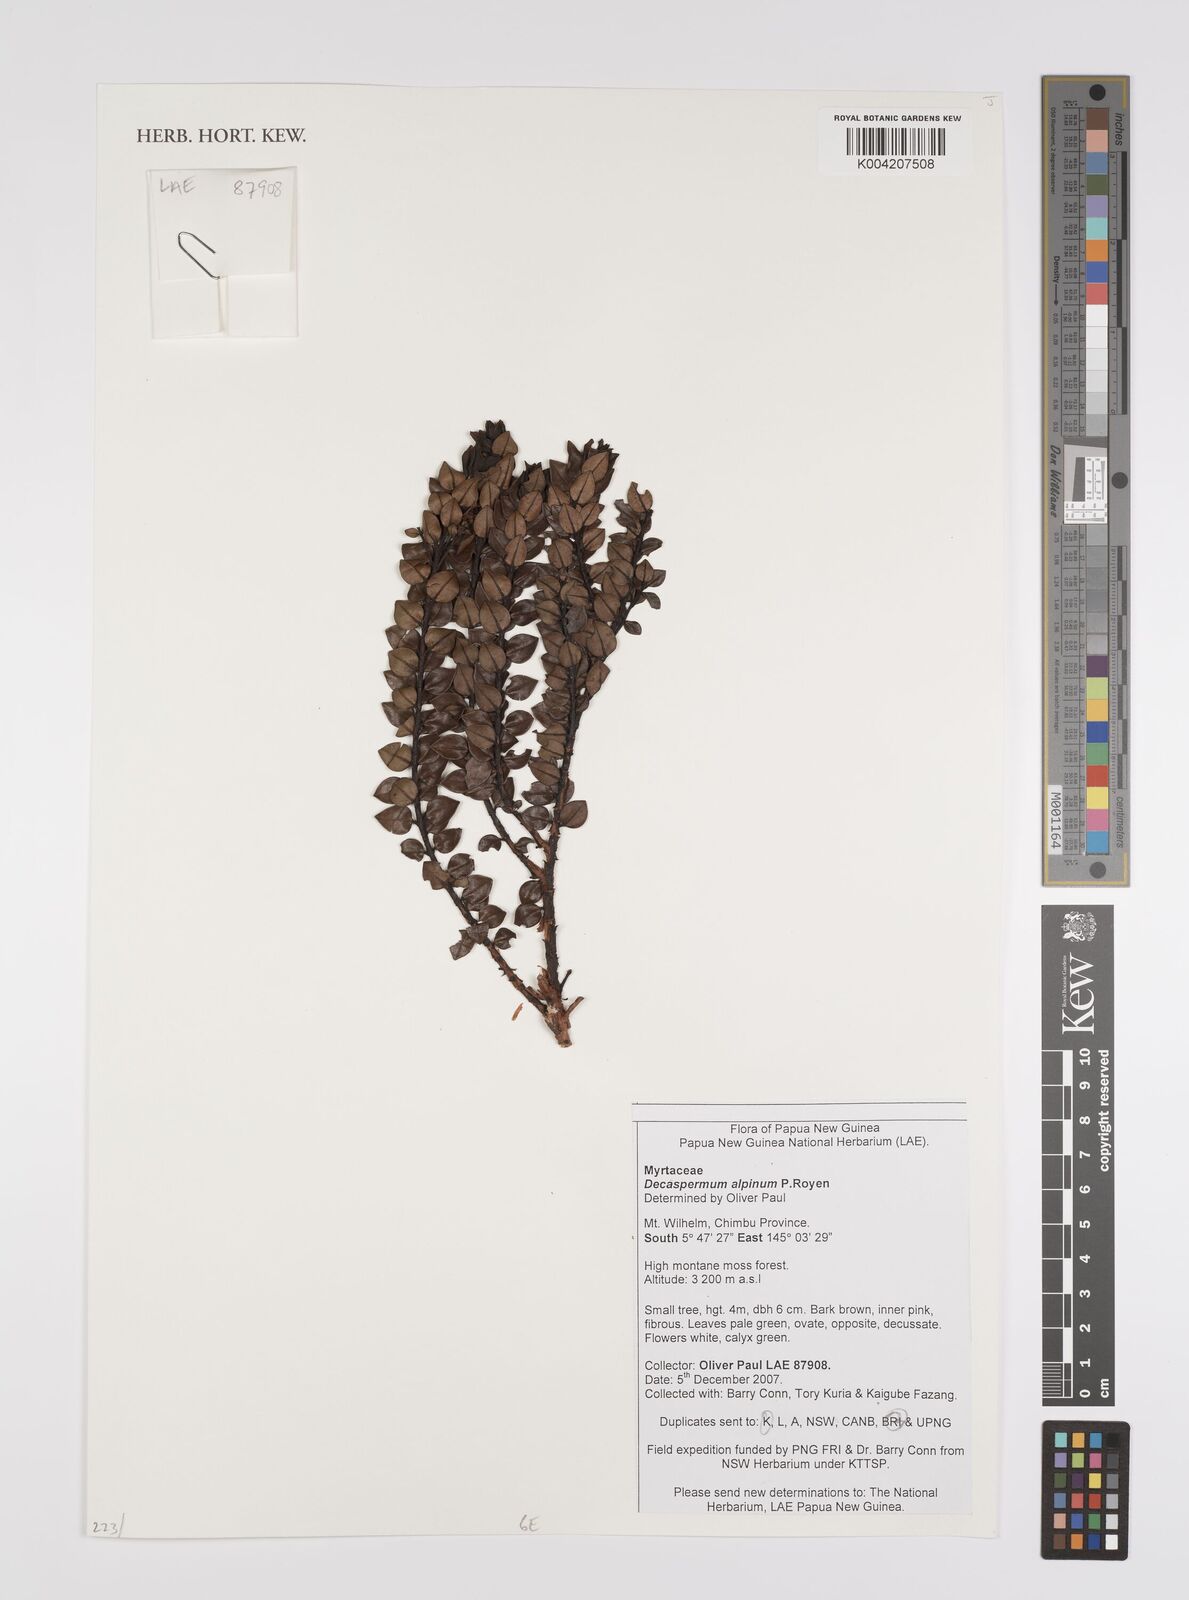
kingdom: Plantae
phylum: Tracheophyta
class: Magnoliopsida
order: Myrtales
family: Myrtaceae
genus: Decaspermum
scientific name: Decaspermum alpinum
